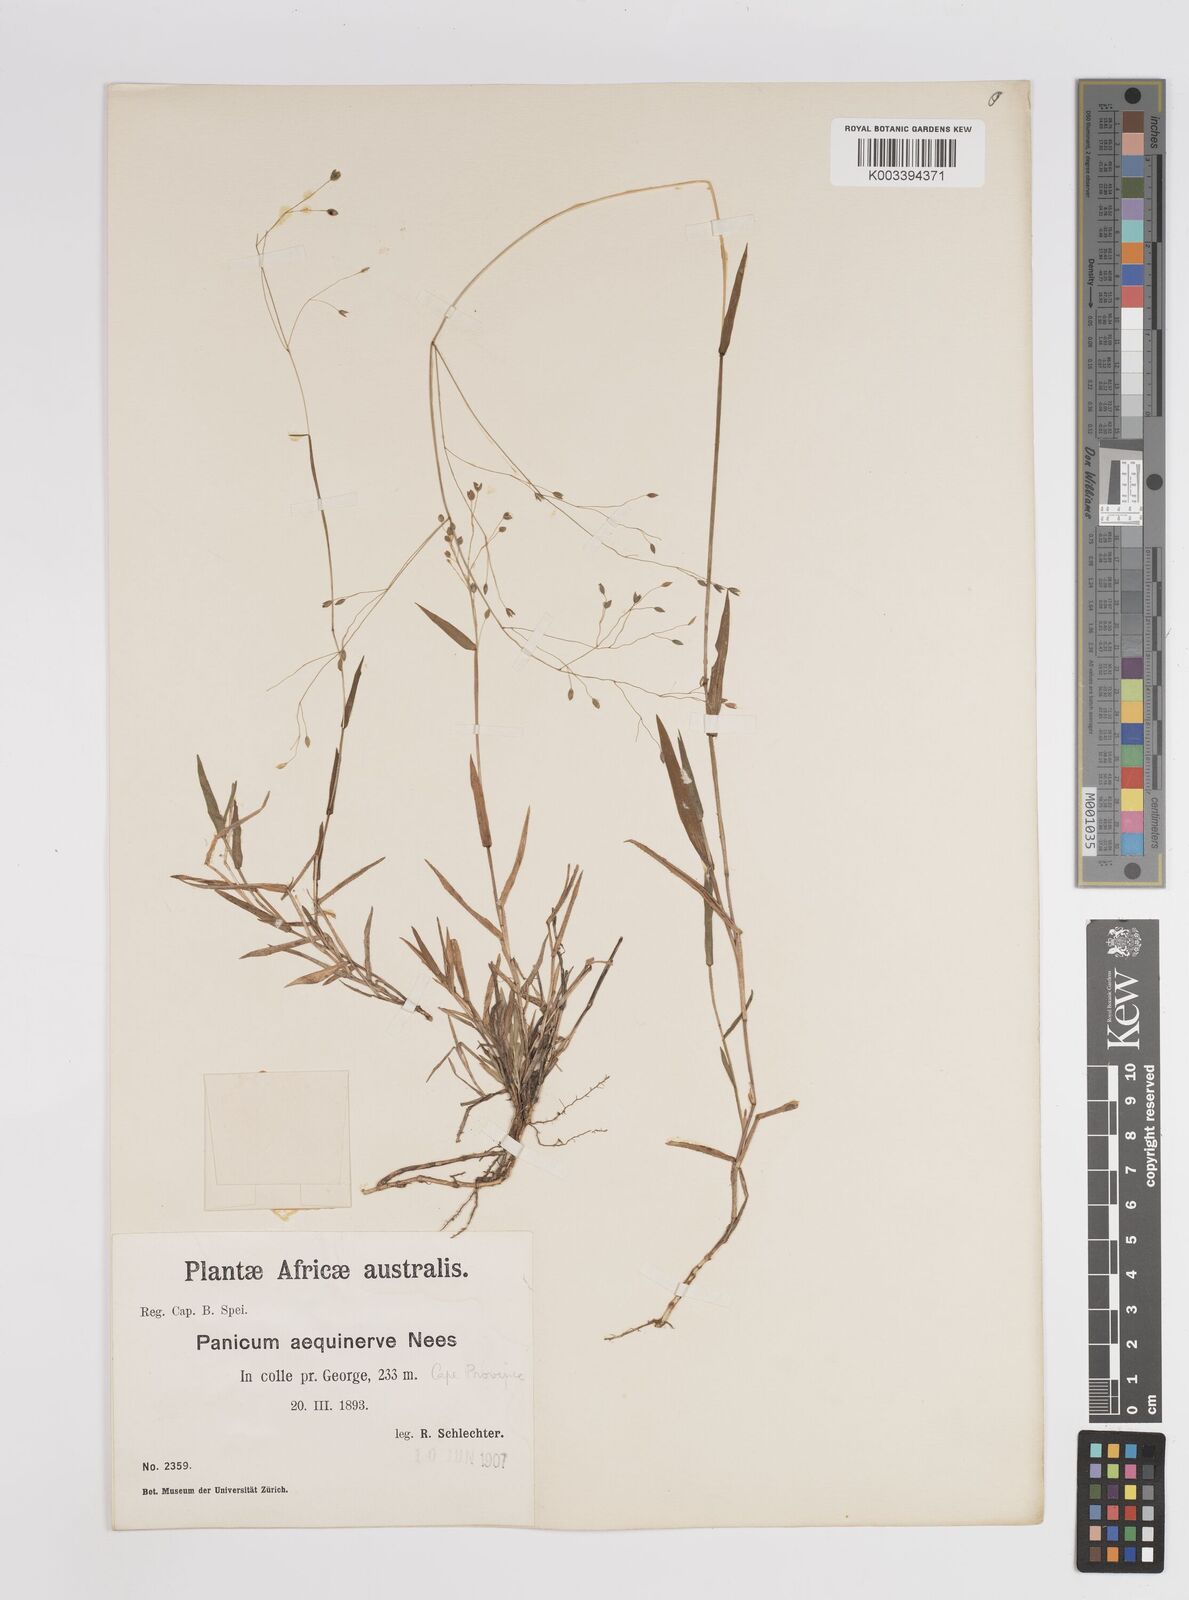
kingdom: Plantae
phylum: Tracheophyta
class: Liliopsida
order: Poales
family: Poaceae
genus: Panicum
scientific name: Panicum aequinerve
